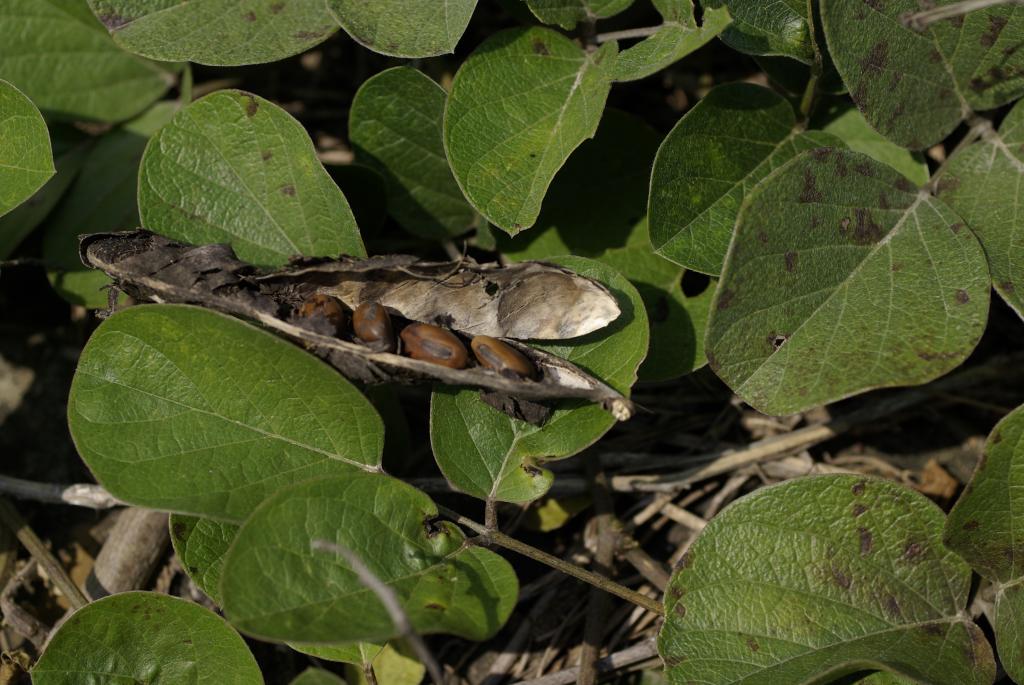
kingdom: Plantae
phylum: Tracheophyta
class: Magnoliopsida
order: Fabales
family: Fabaceae
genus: Canavalia
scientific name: Canavalia rosea
